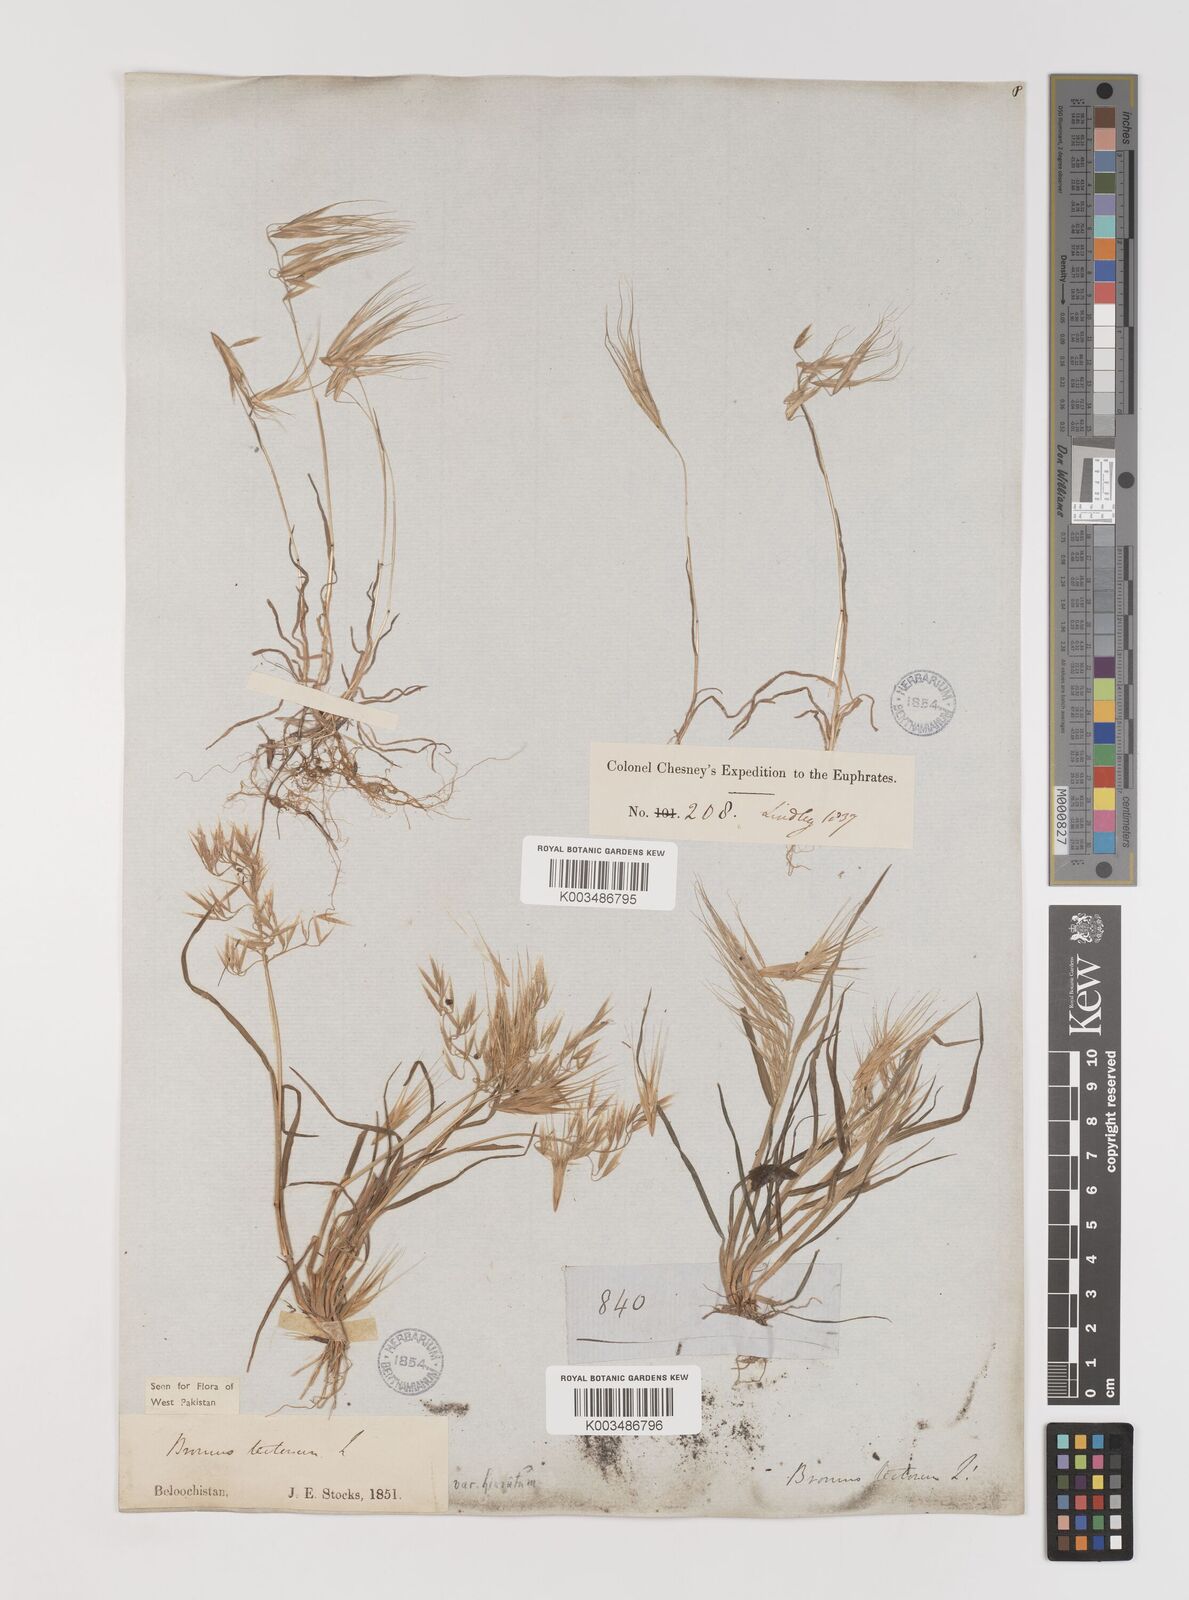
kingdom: Plantae
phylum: Tracheophyta
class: Liliopsida
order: Poales
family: Poaceae
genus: Bromus
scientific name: Bromus tectorum
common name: Cheatgrass
